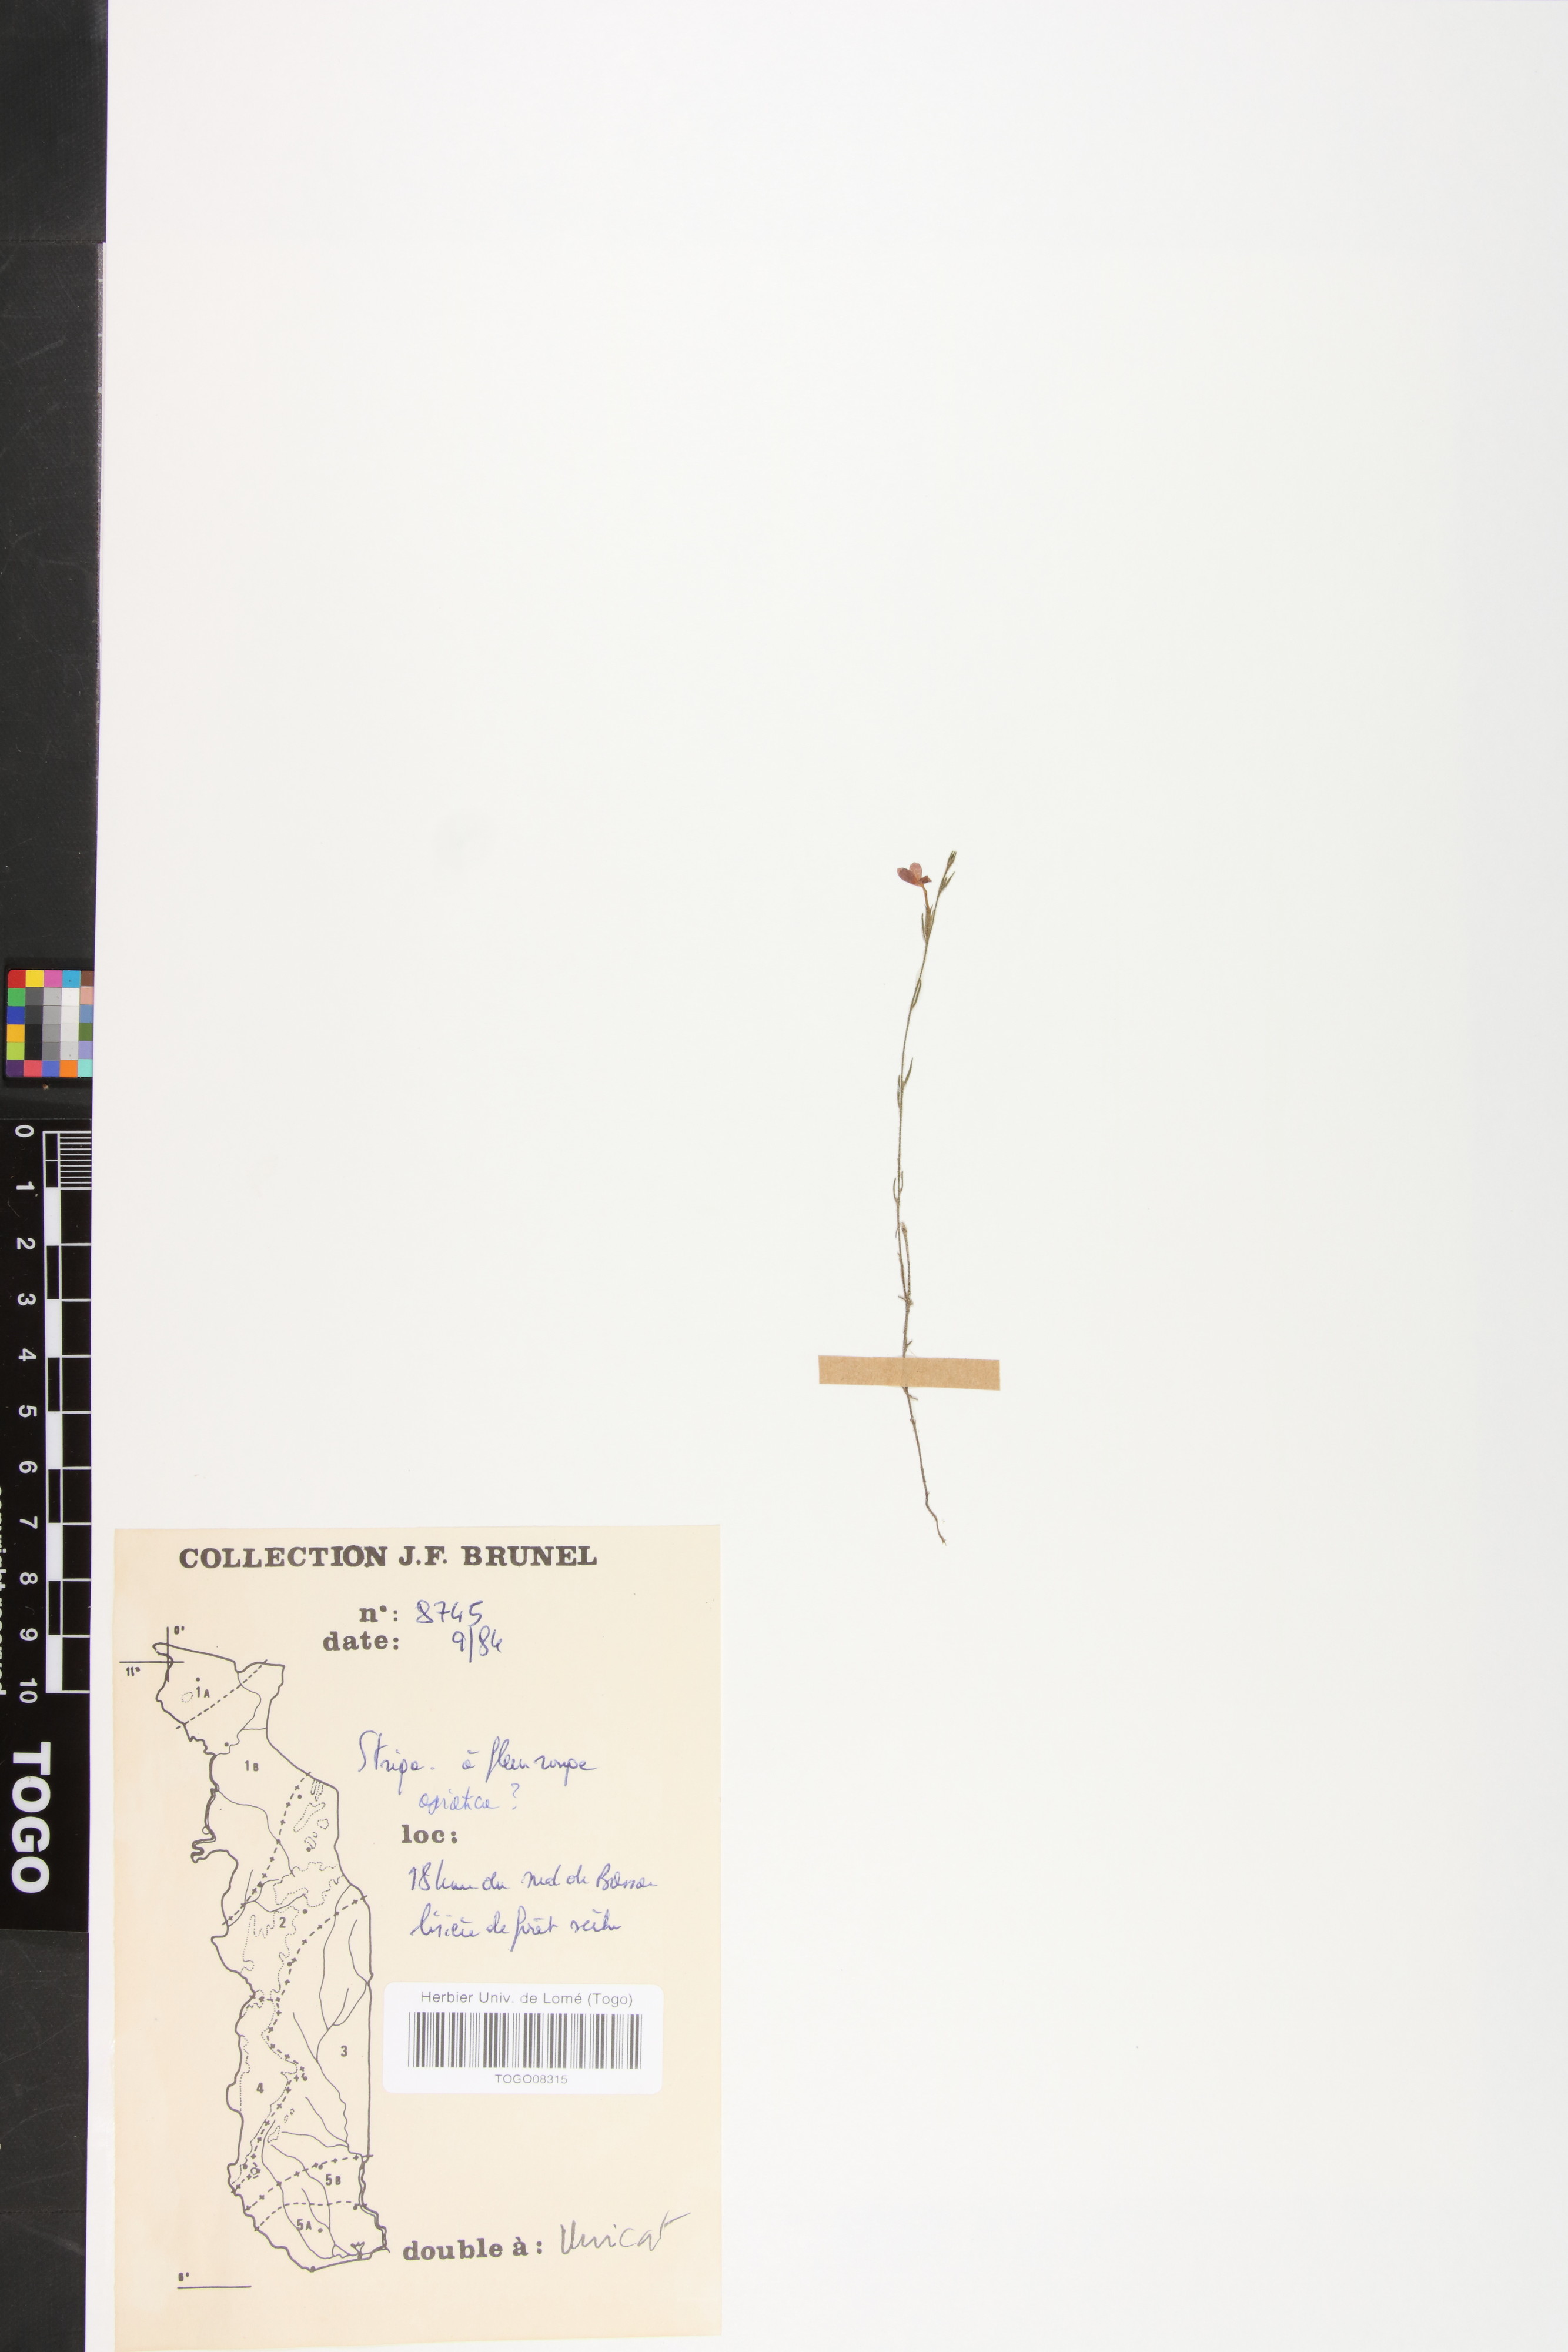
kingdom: Plantae
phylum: Tracheophyta
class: Magnoliopsida
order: Lamiales
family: Orobanchaceae
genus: Striga
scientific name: Striga asiatica
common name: Asiatic witchweed
